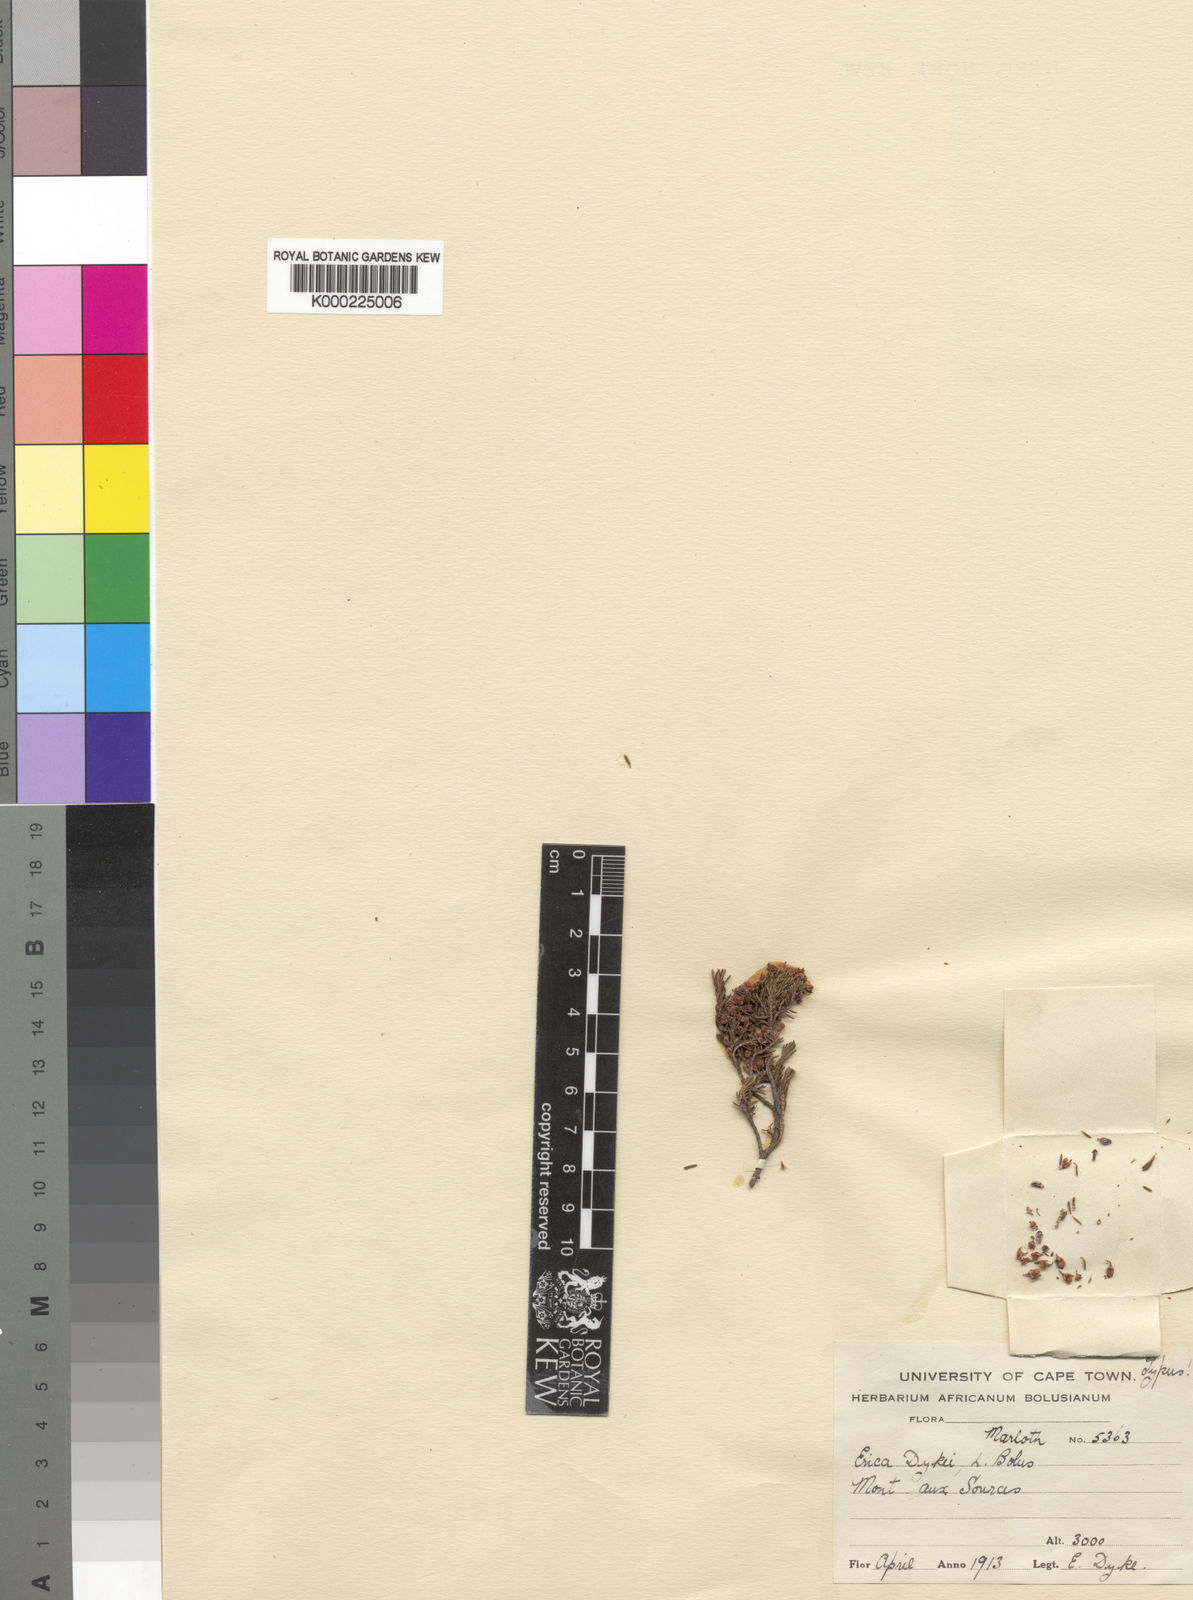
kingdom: Plantae
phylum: Tracheophyta
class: Magnoliopsida
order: Ericales
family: Ericaceae
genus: Erica
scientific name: Erica thodei
